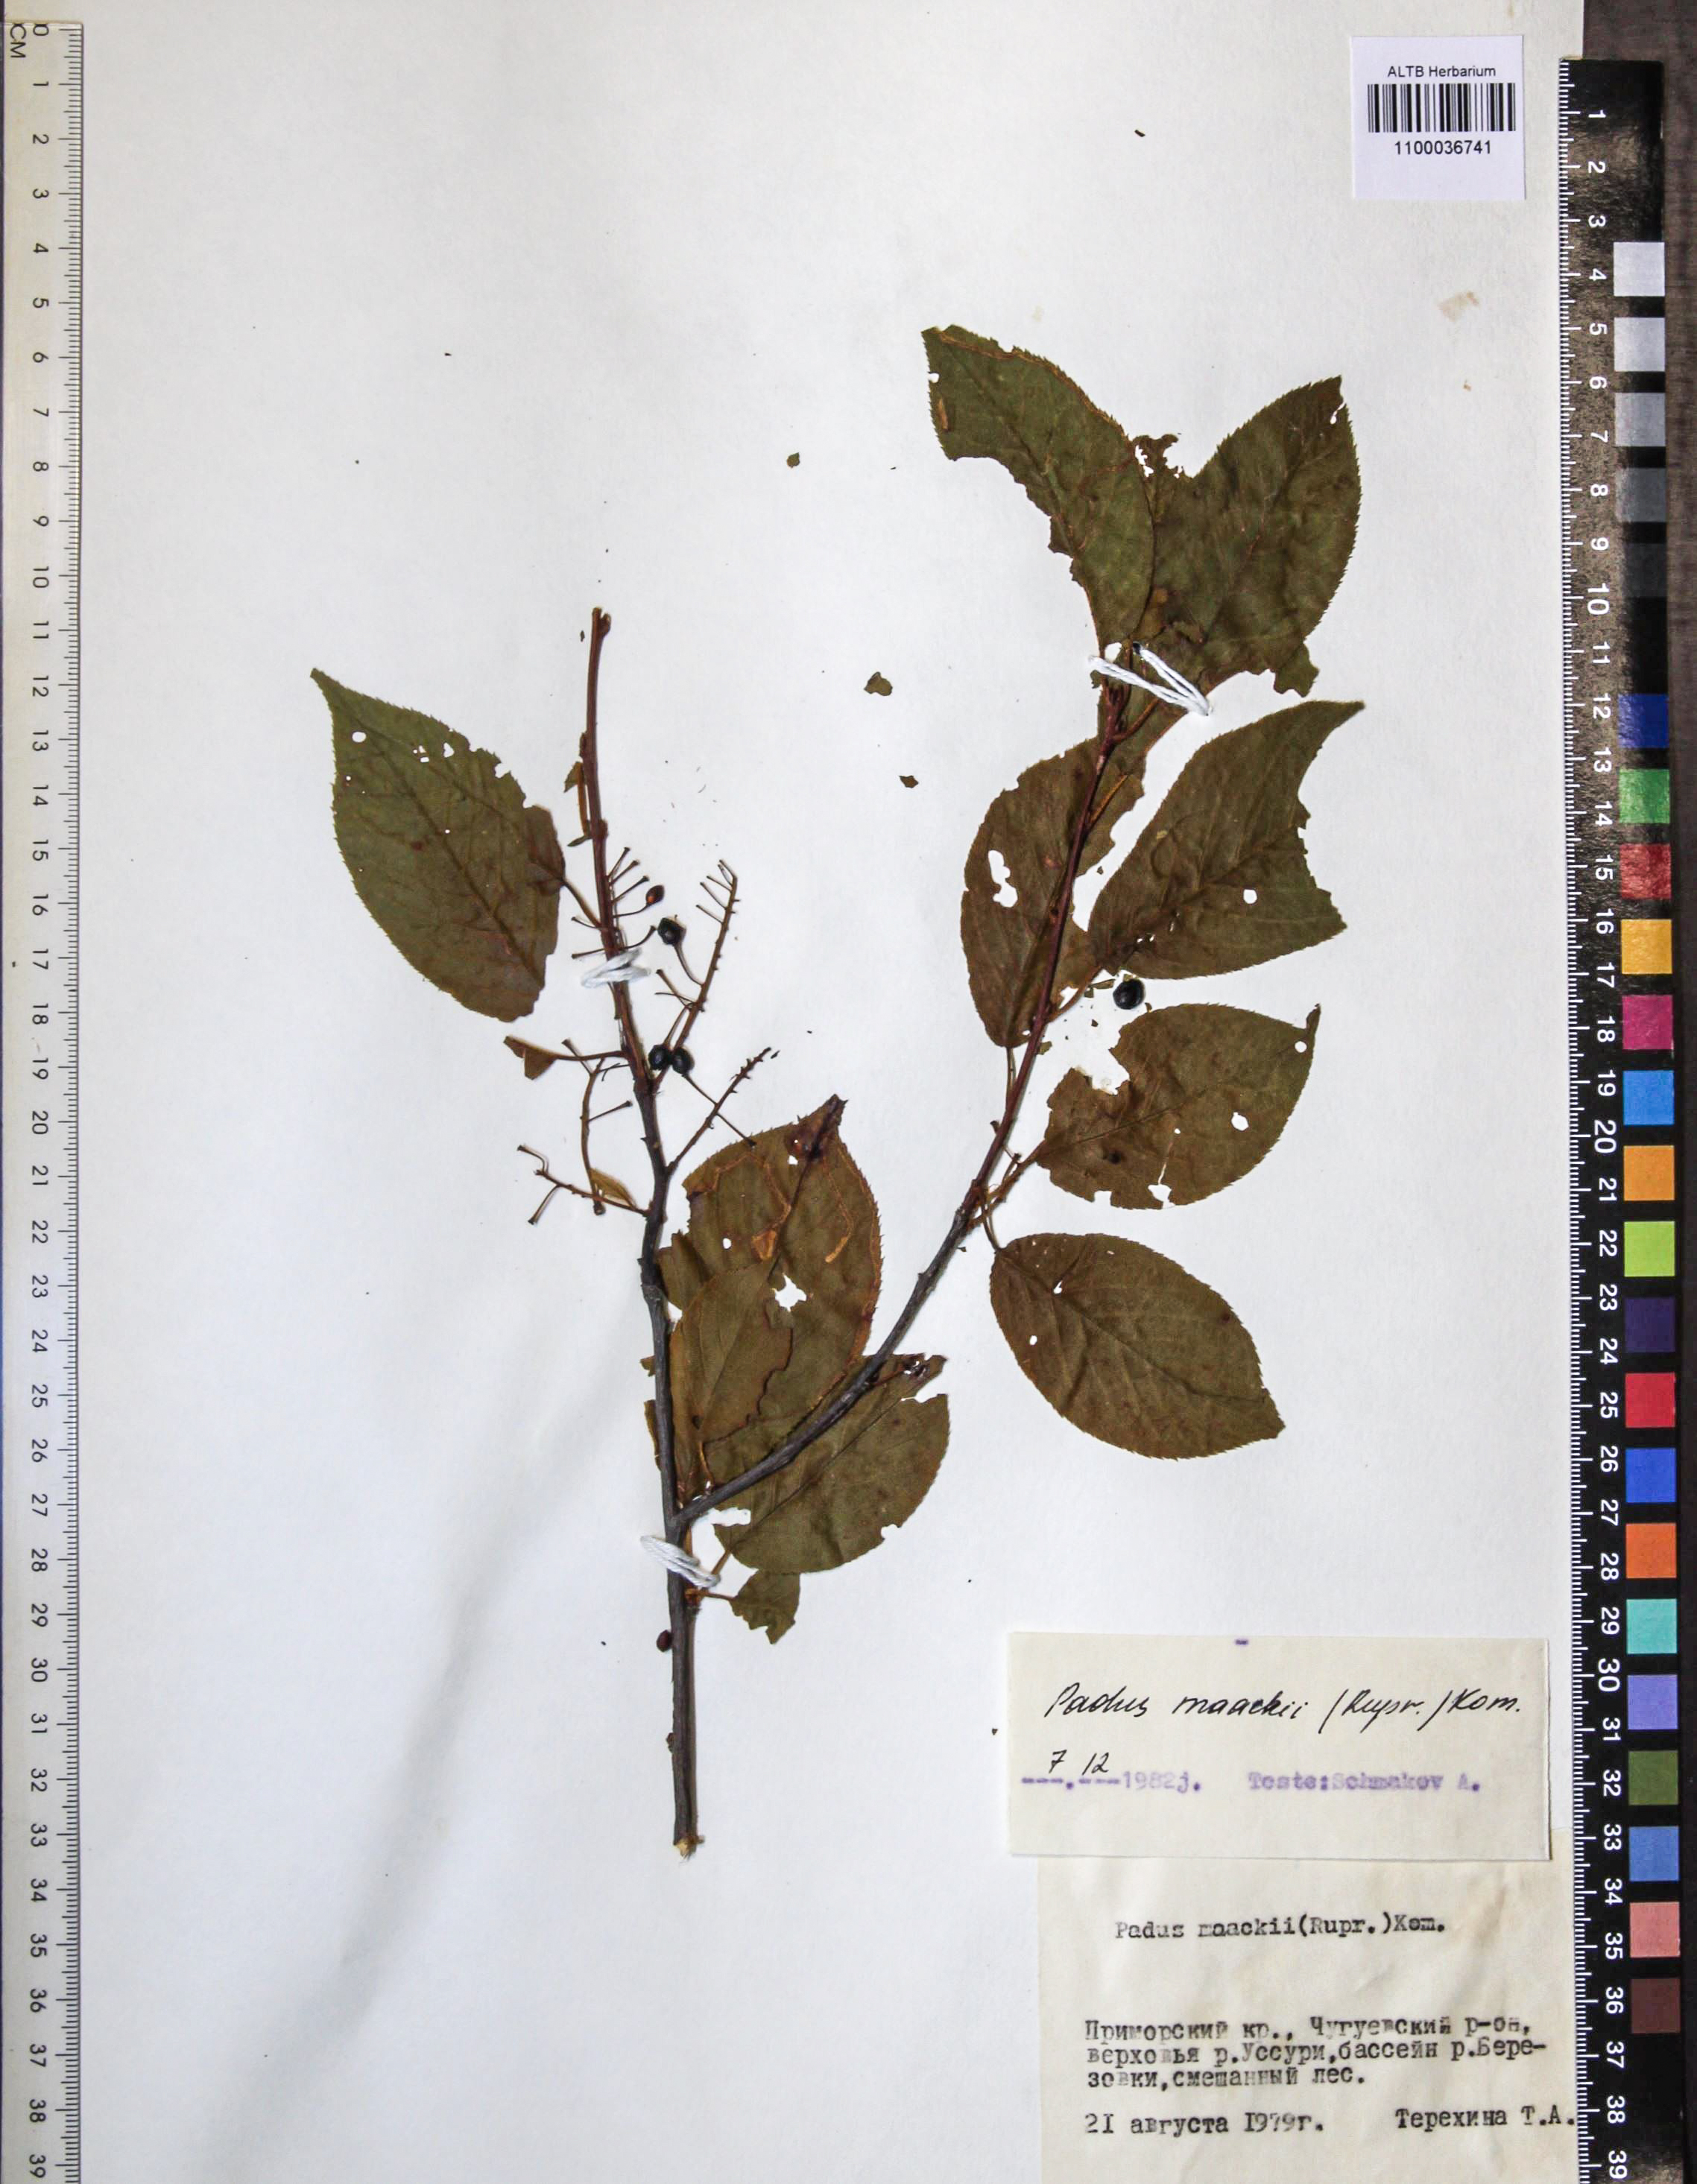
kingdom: Plantae
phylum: Tracheophyta
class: Magnoliopsida
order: Rosales
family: Rosaceae
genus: Prunus
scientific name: Prunus glandulifolia
